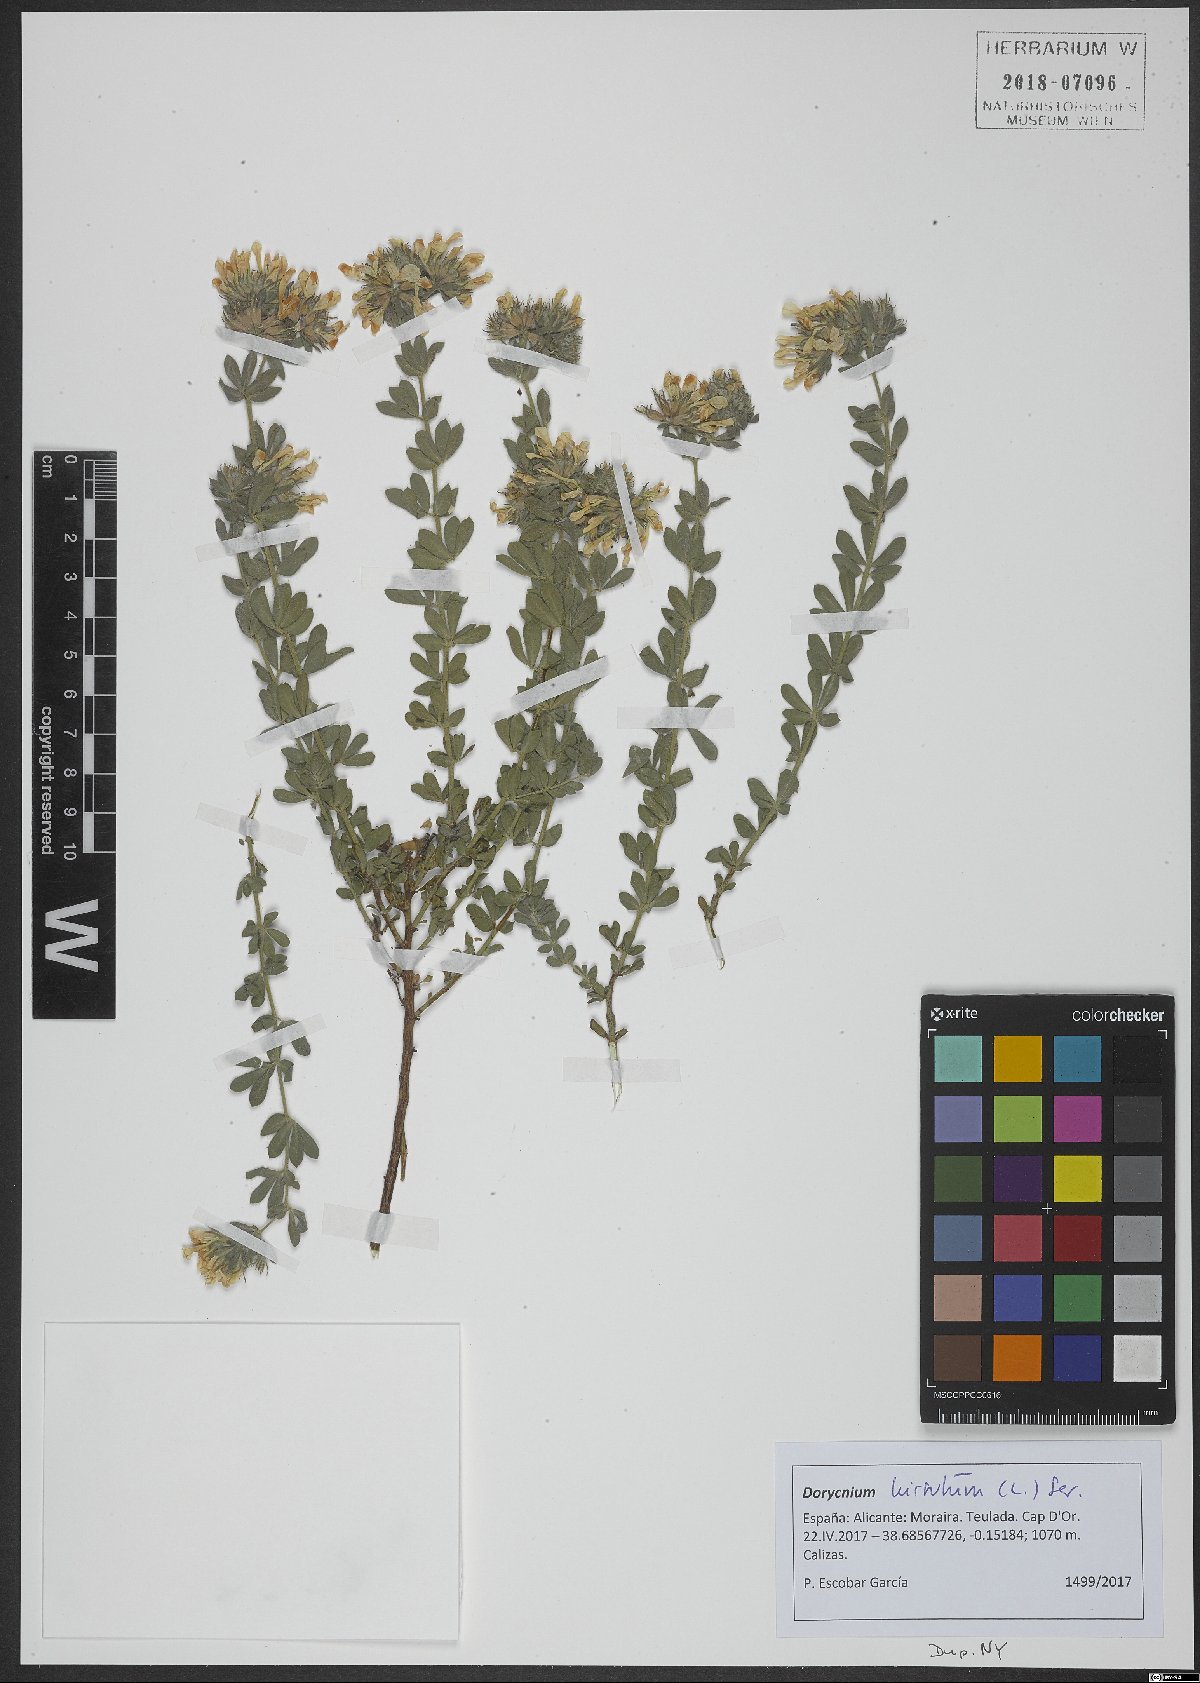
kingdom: Plantae
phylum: Tracheophyta
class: Magnoliopsida
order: Fabales
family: Fabaceae
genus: Lotus
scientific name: Lotus hirsutus
